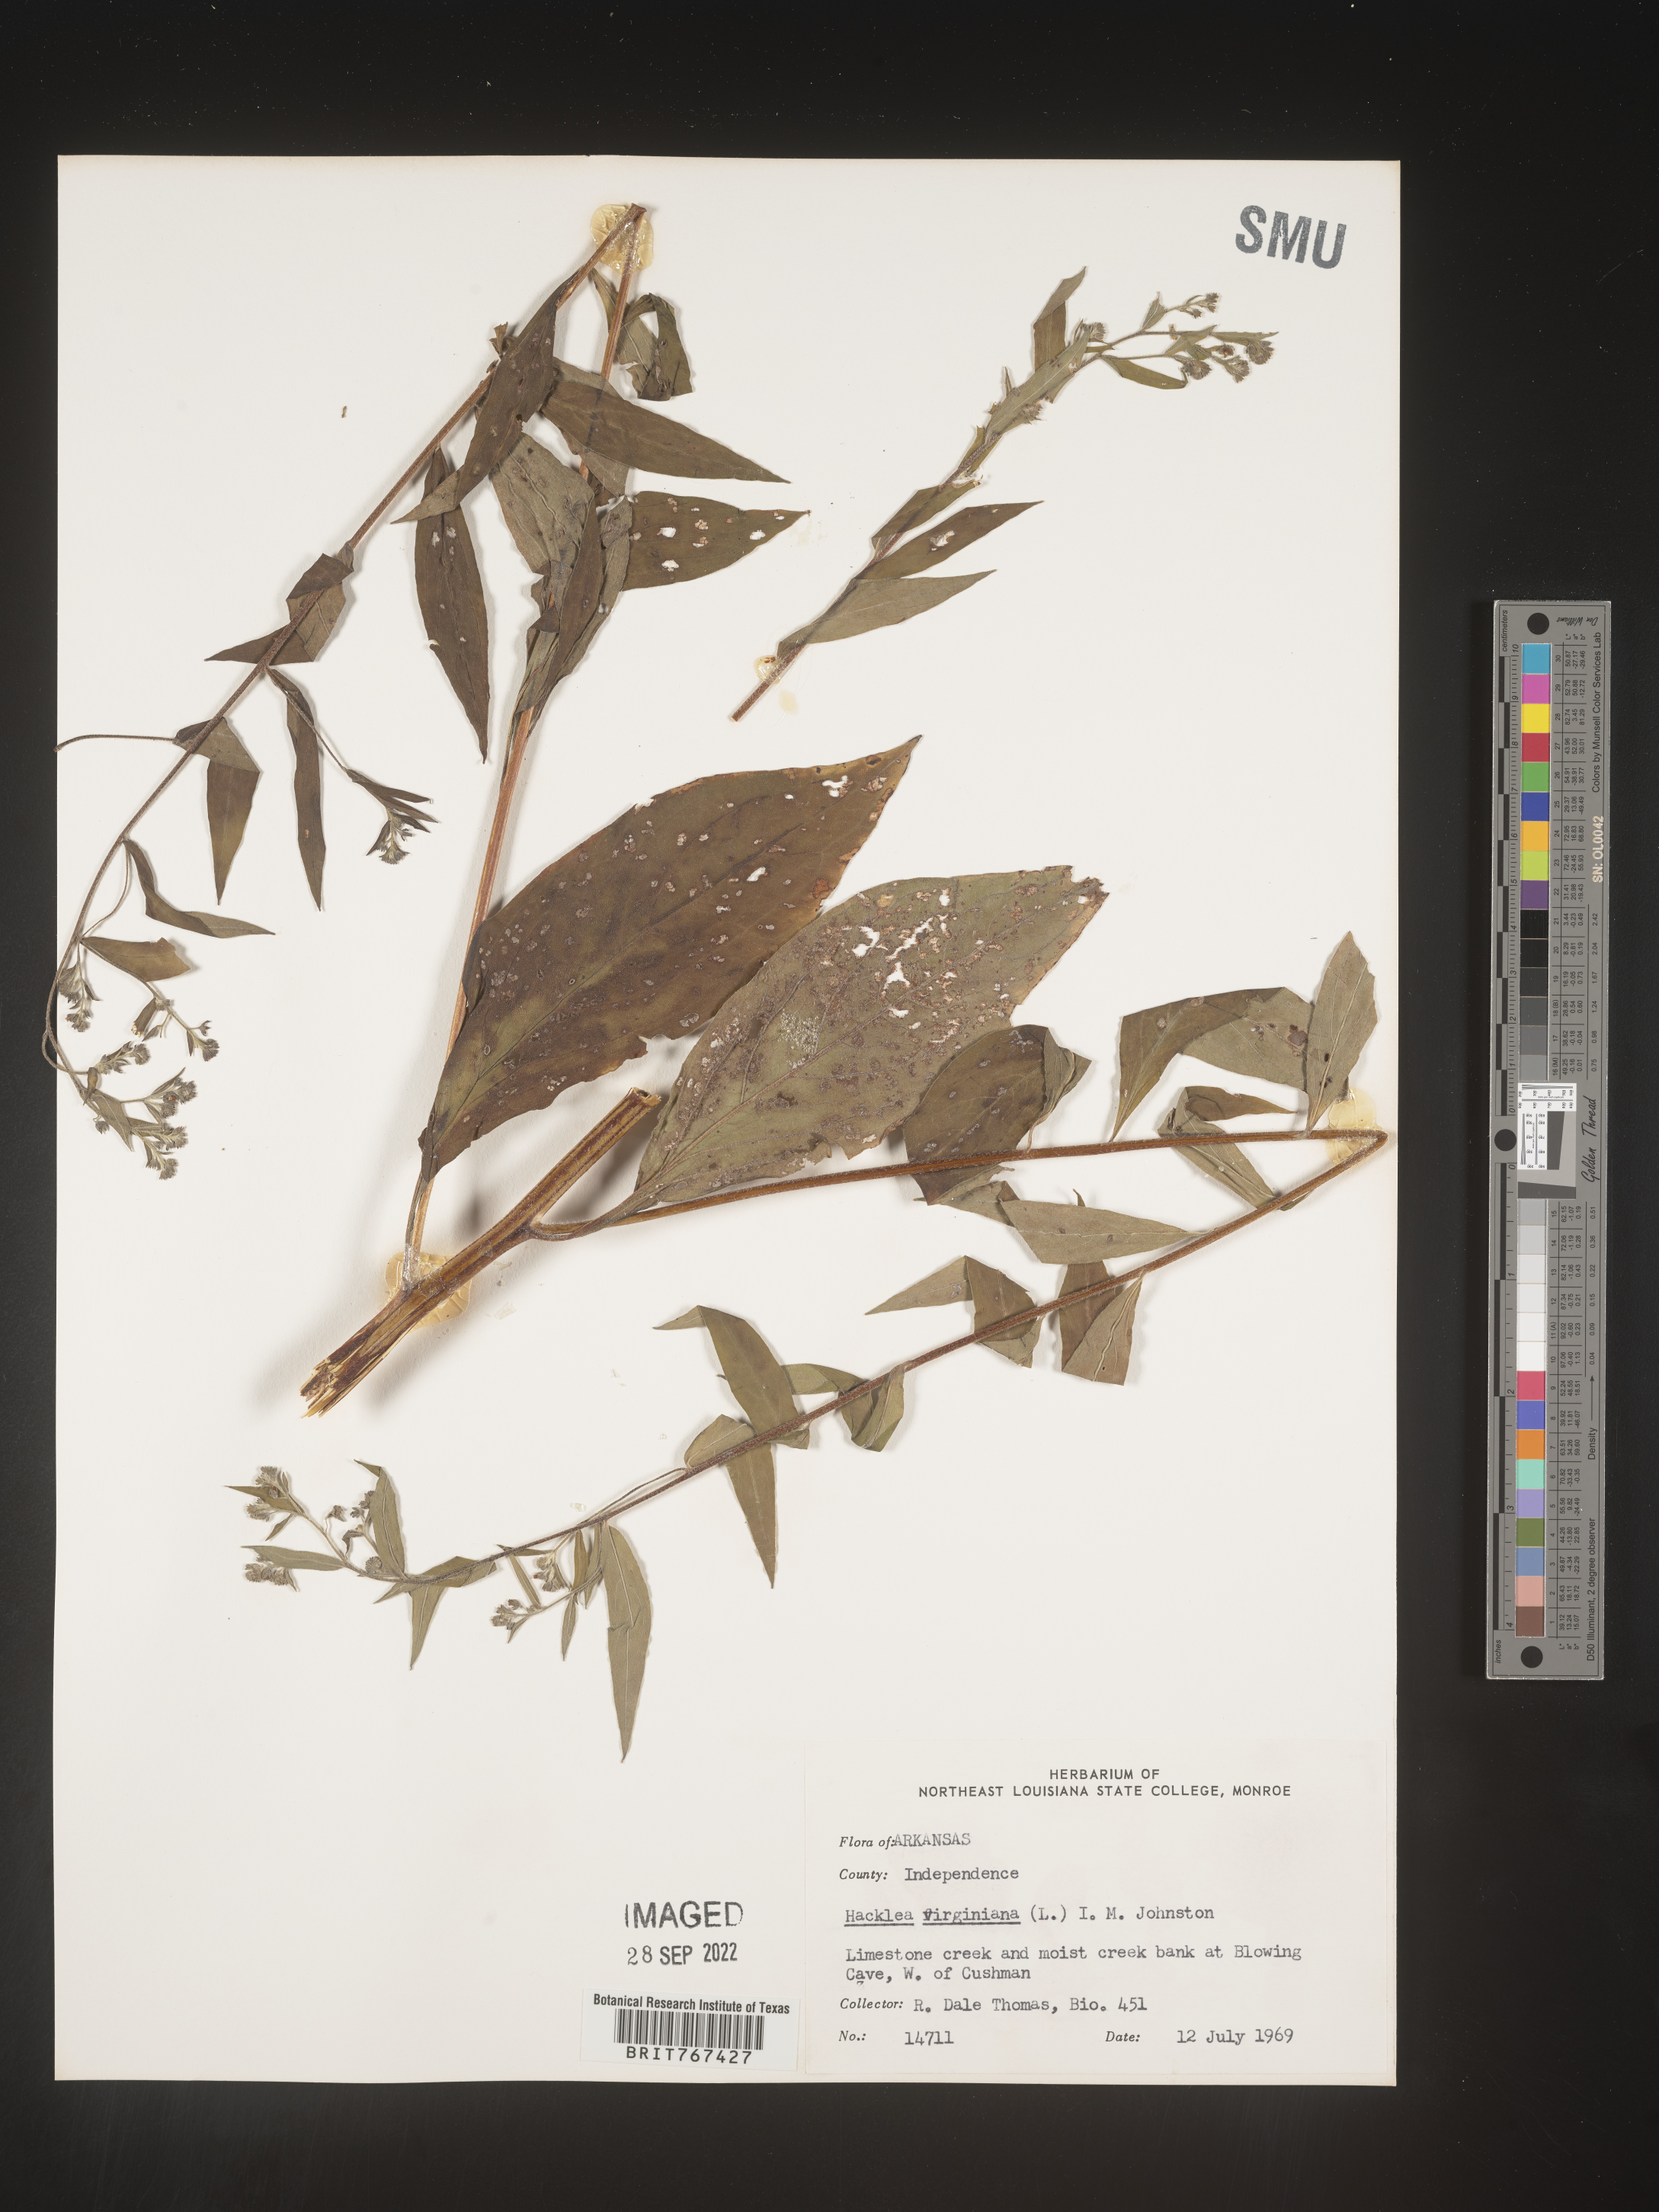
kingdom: Plantae
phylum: Tracheophyta
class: Magnoliopsida
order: Boraginales
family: Boraginaceae
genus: Hackelia
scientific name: Hackelia virginiana
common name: Beggar's-lice
